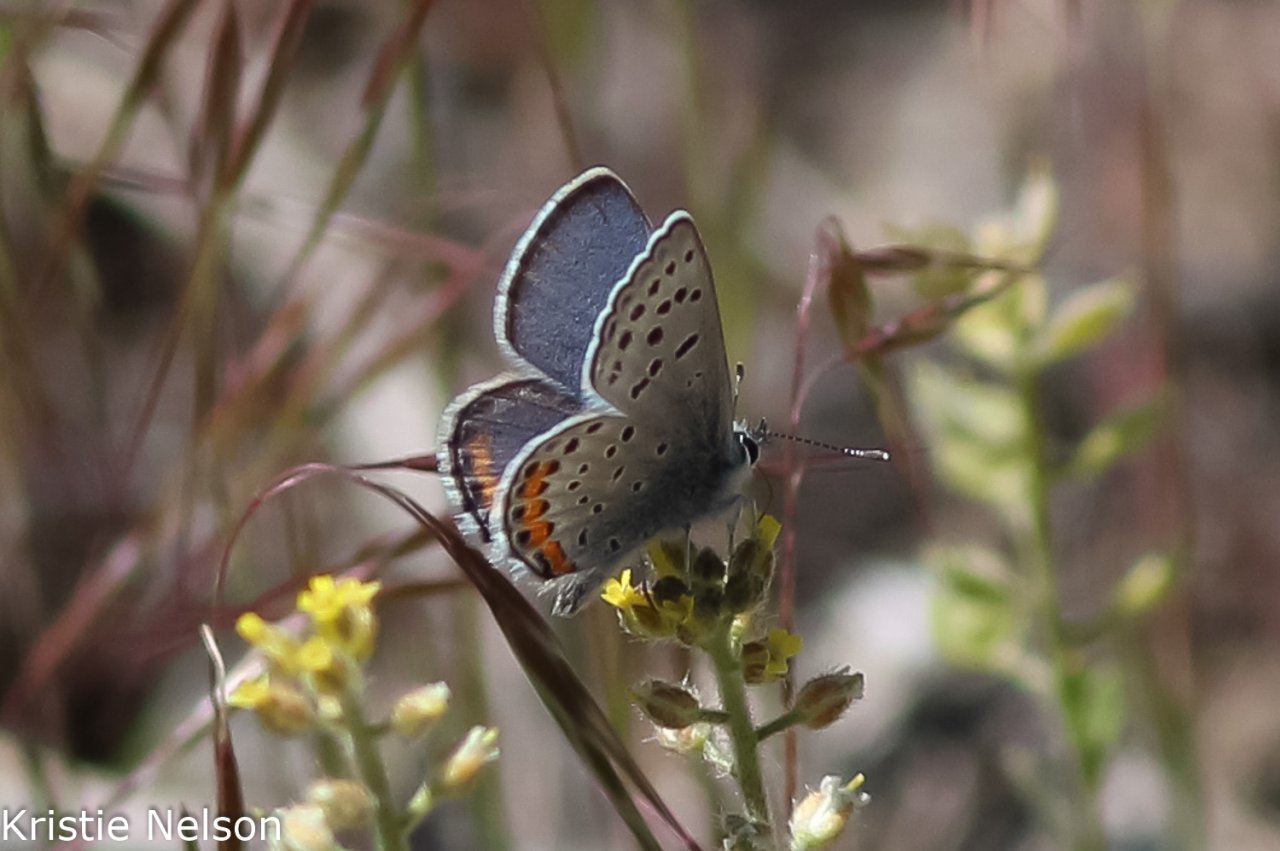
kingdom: Animalia
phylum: Arthropoda
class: Insecta
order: Lepidoptera
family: Lycaenidae
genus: Plebejus
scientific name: Plebejus acmon
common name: Acmon Blue
